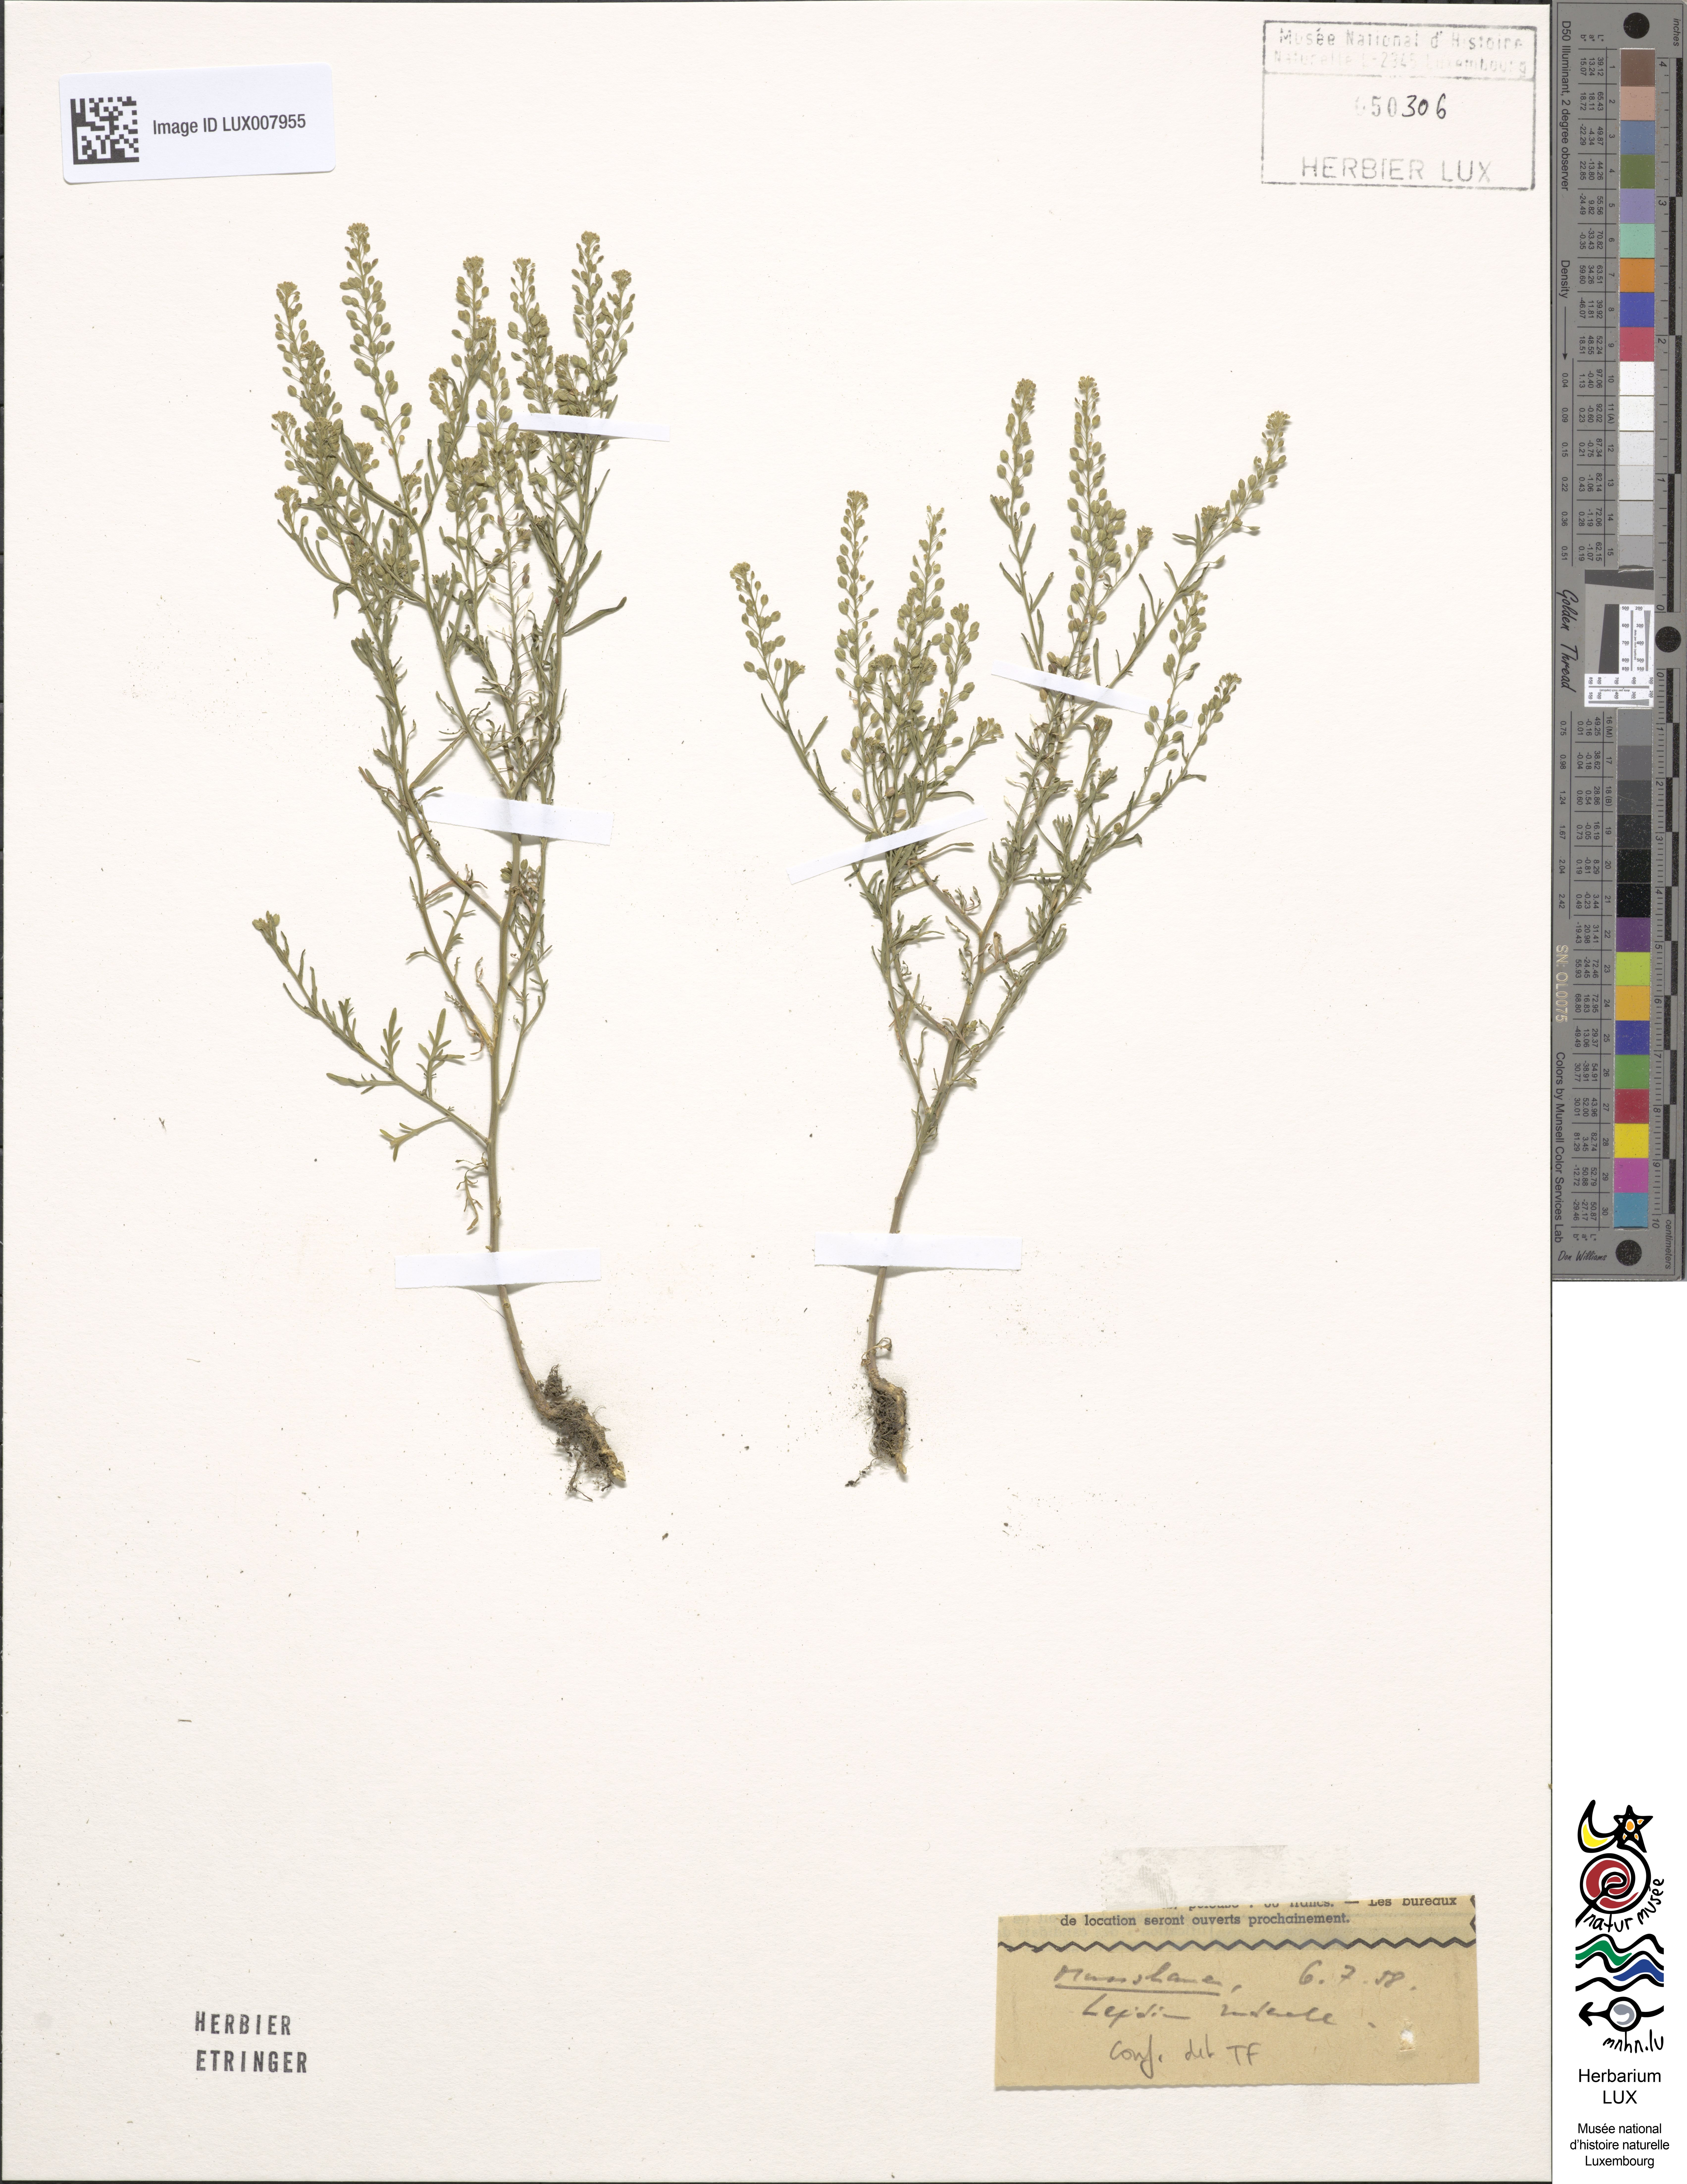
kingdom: Plantae
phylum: Tracheophyta
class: Magnoliopsida
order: Brassicales
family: Brassicaceae
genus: Lepidium
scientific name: Lepidium ruderale
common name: Narrow-leaved pepperwort
